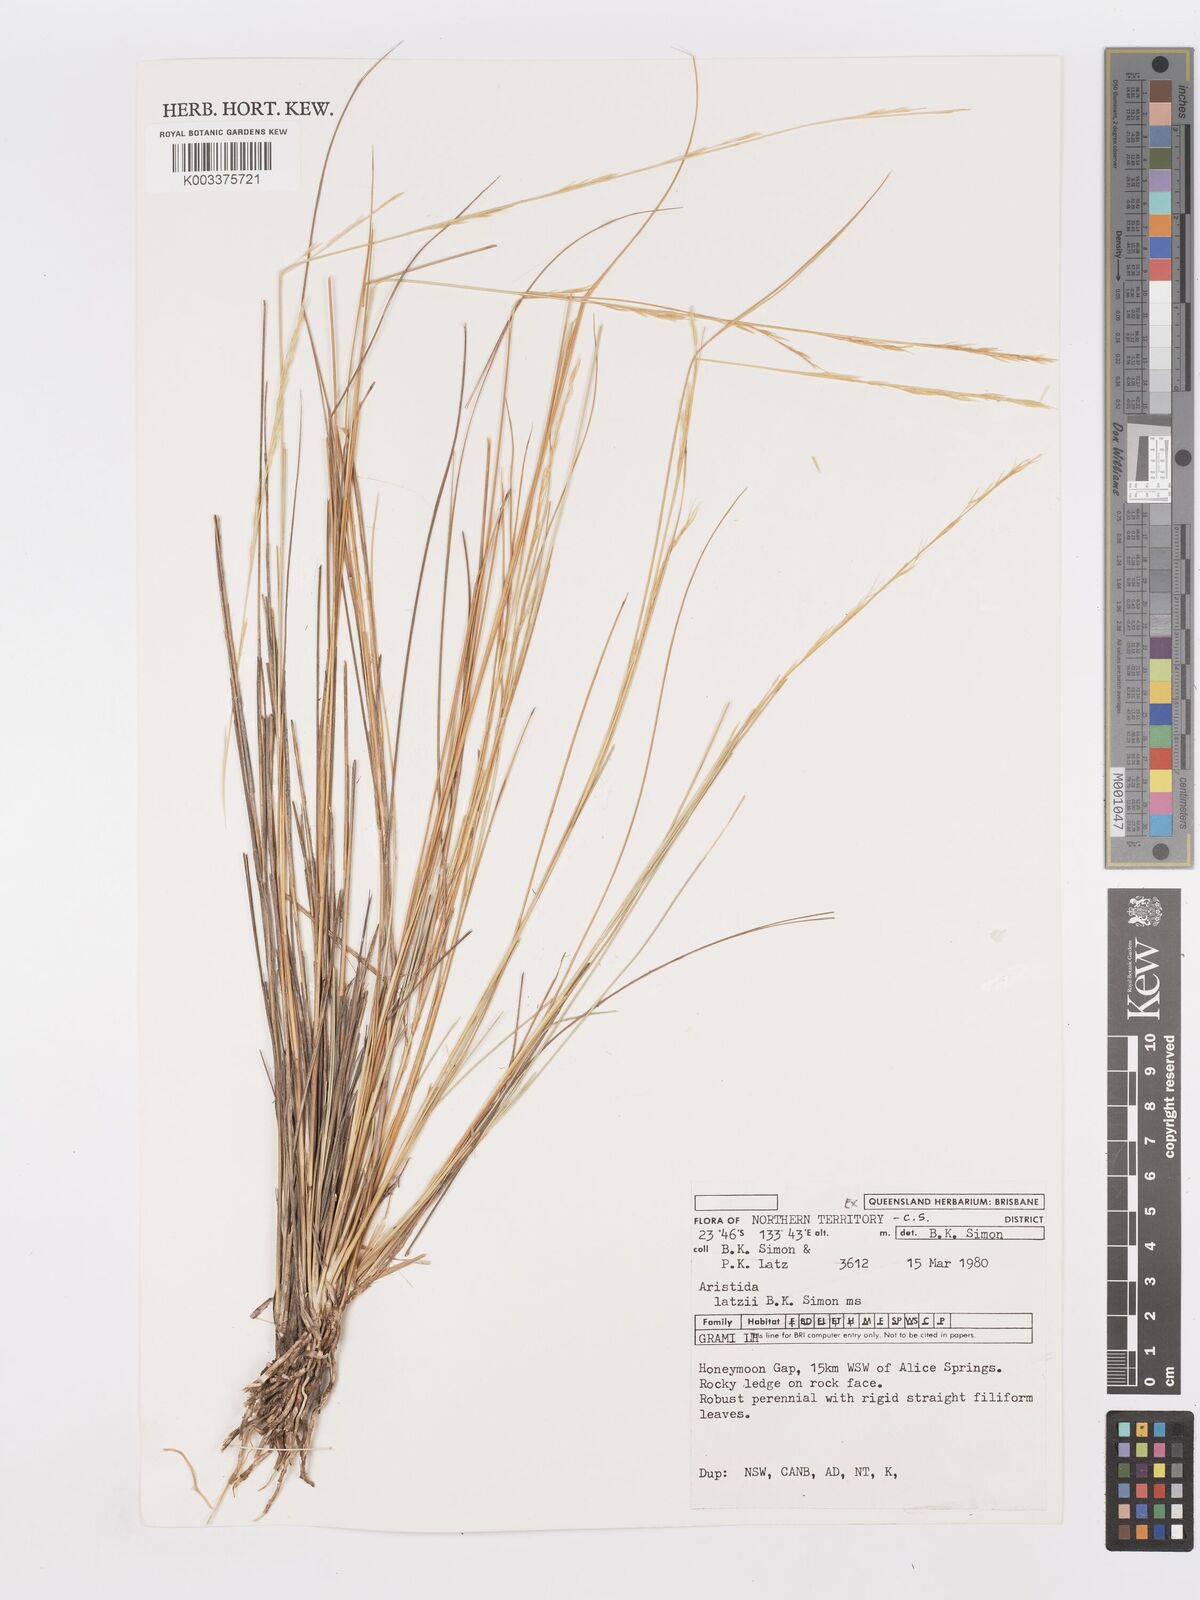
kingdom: Plantae
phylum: Tracheophyta
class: Liliopsida
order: Poales
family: Poaceae
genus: Aristida
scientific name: Aristida latzii
